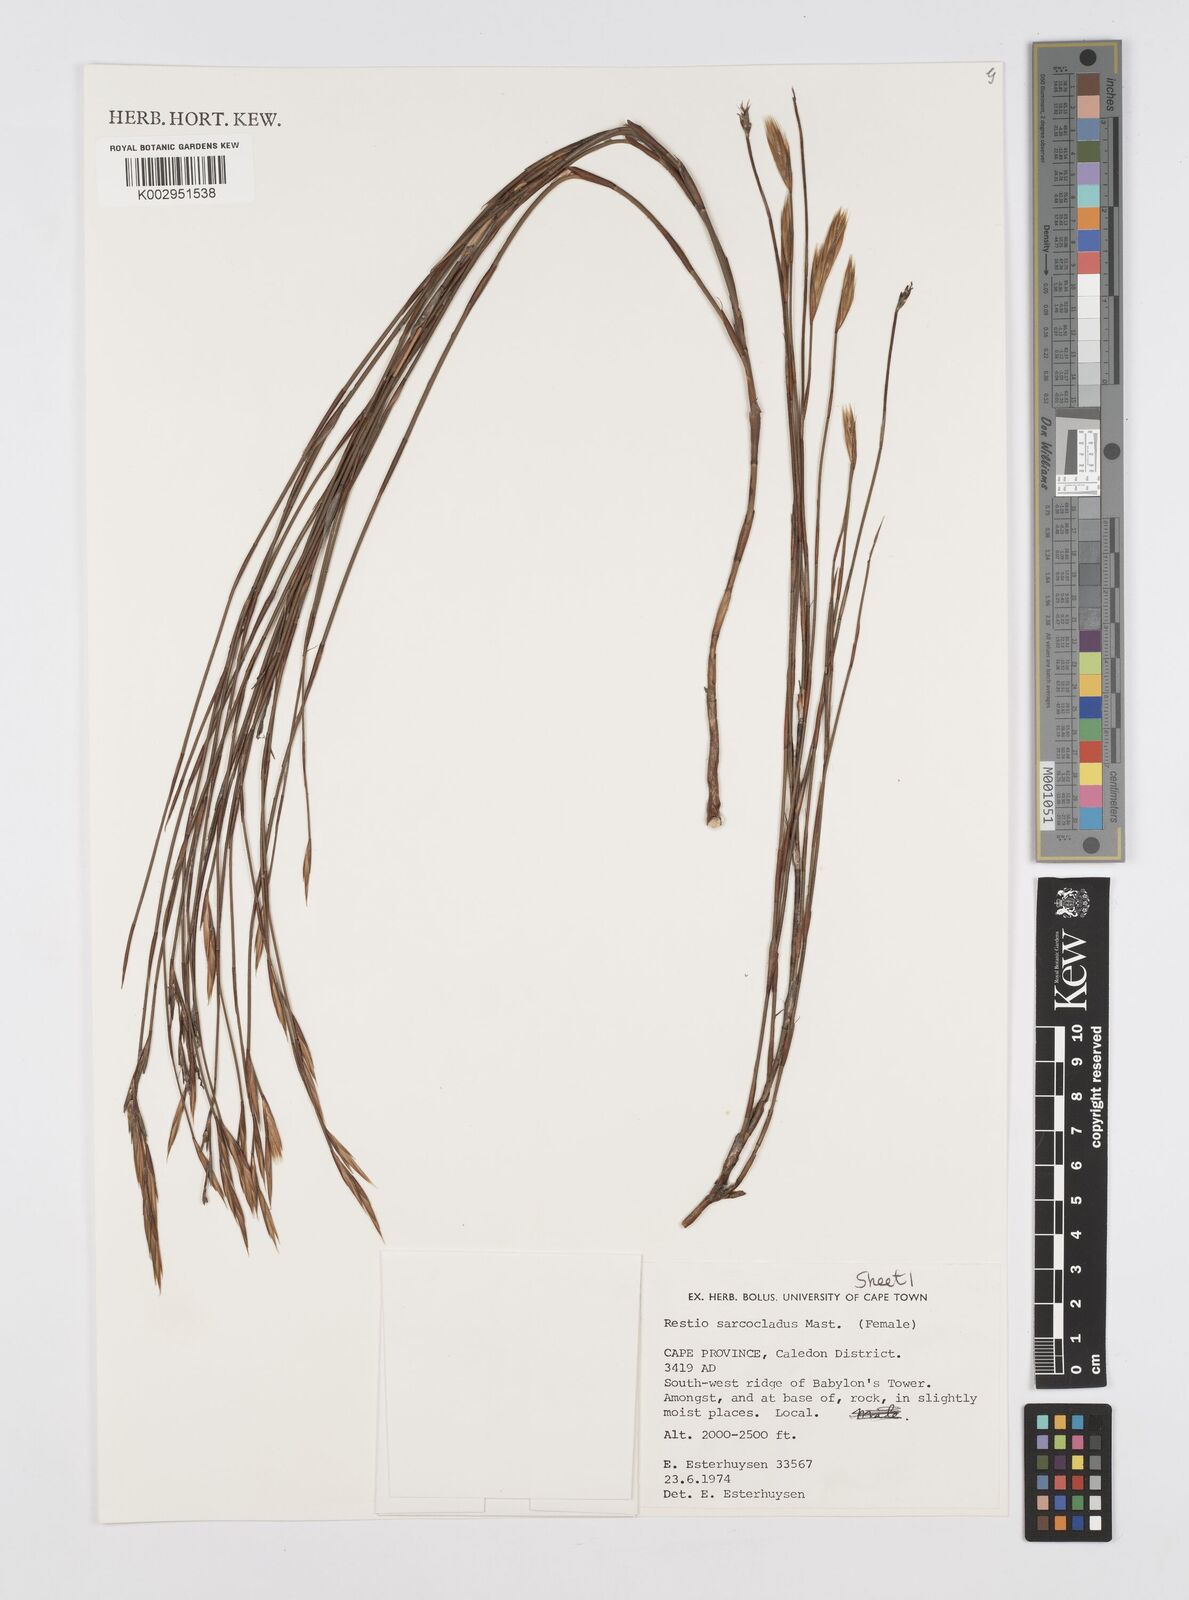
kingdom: Plantae
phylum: Tracheophyta
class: Liliopsida
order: Poales
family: Restionaceae
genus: Restio
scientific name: Restio saroclados
